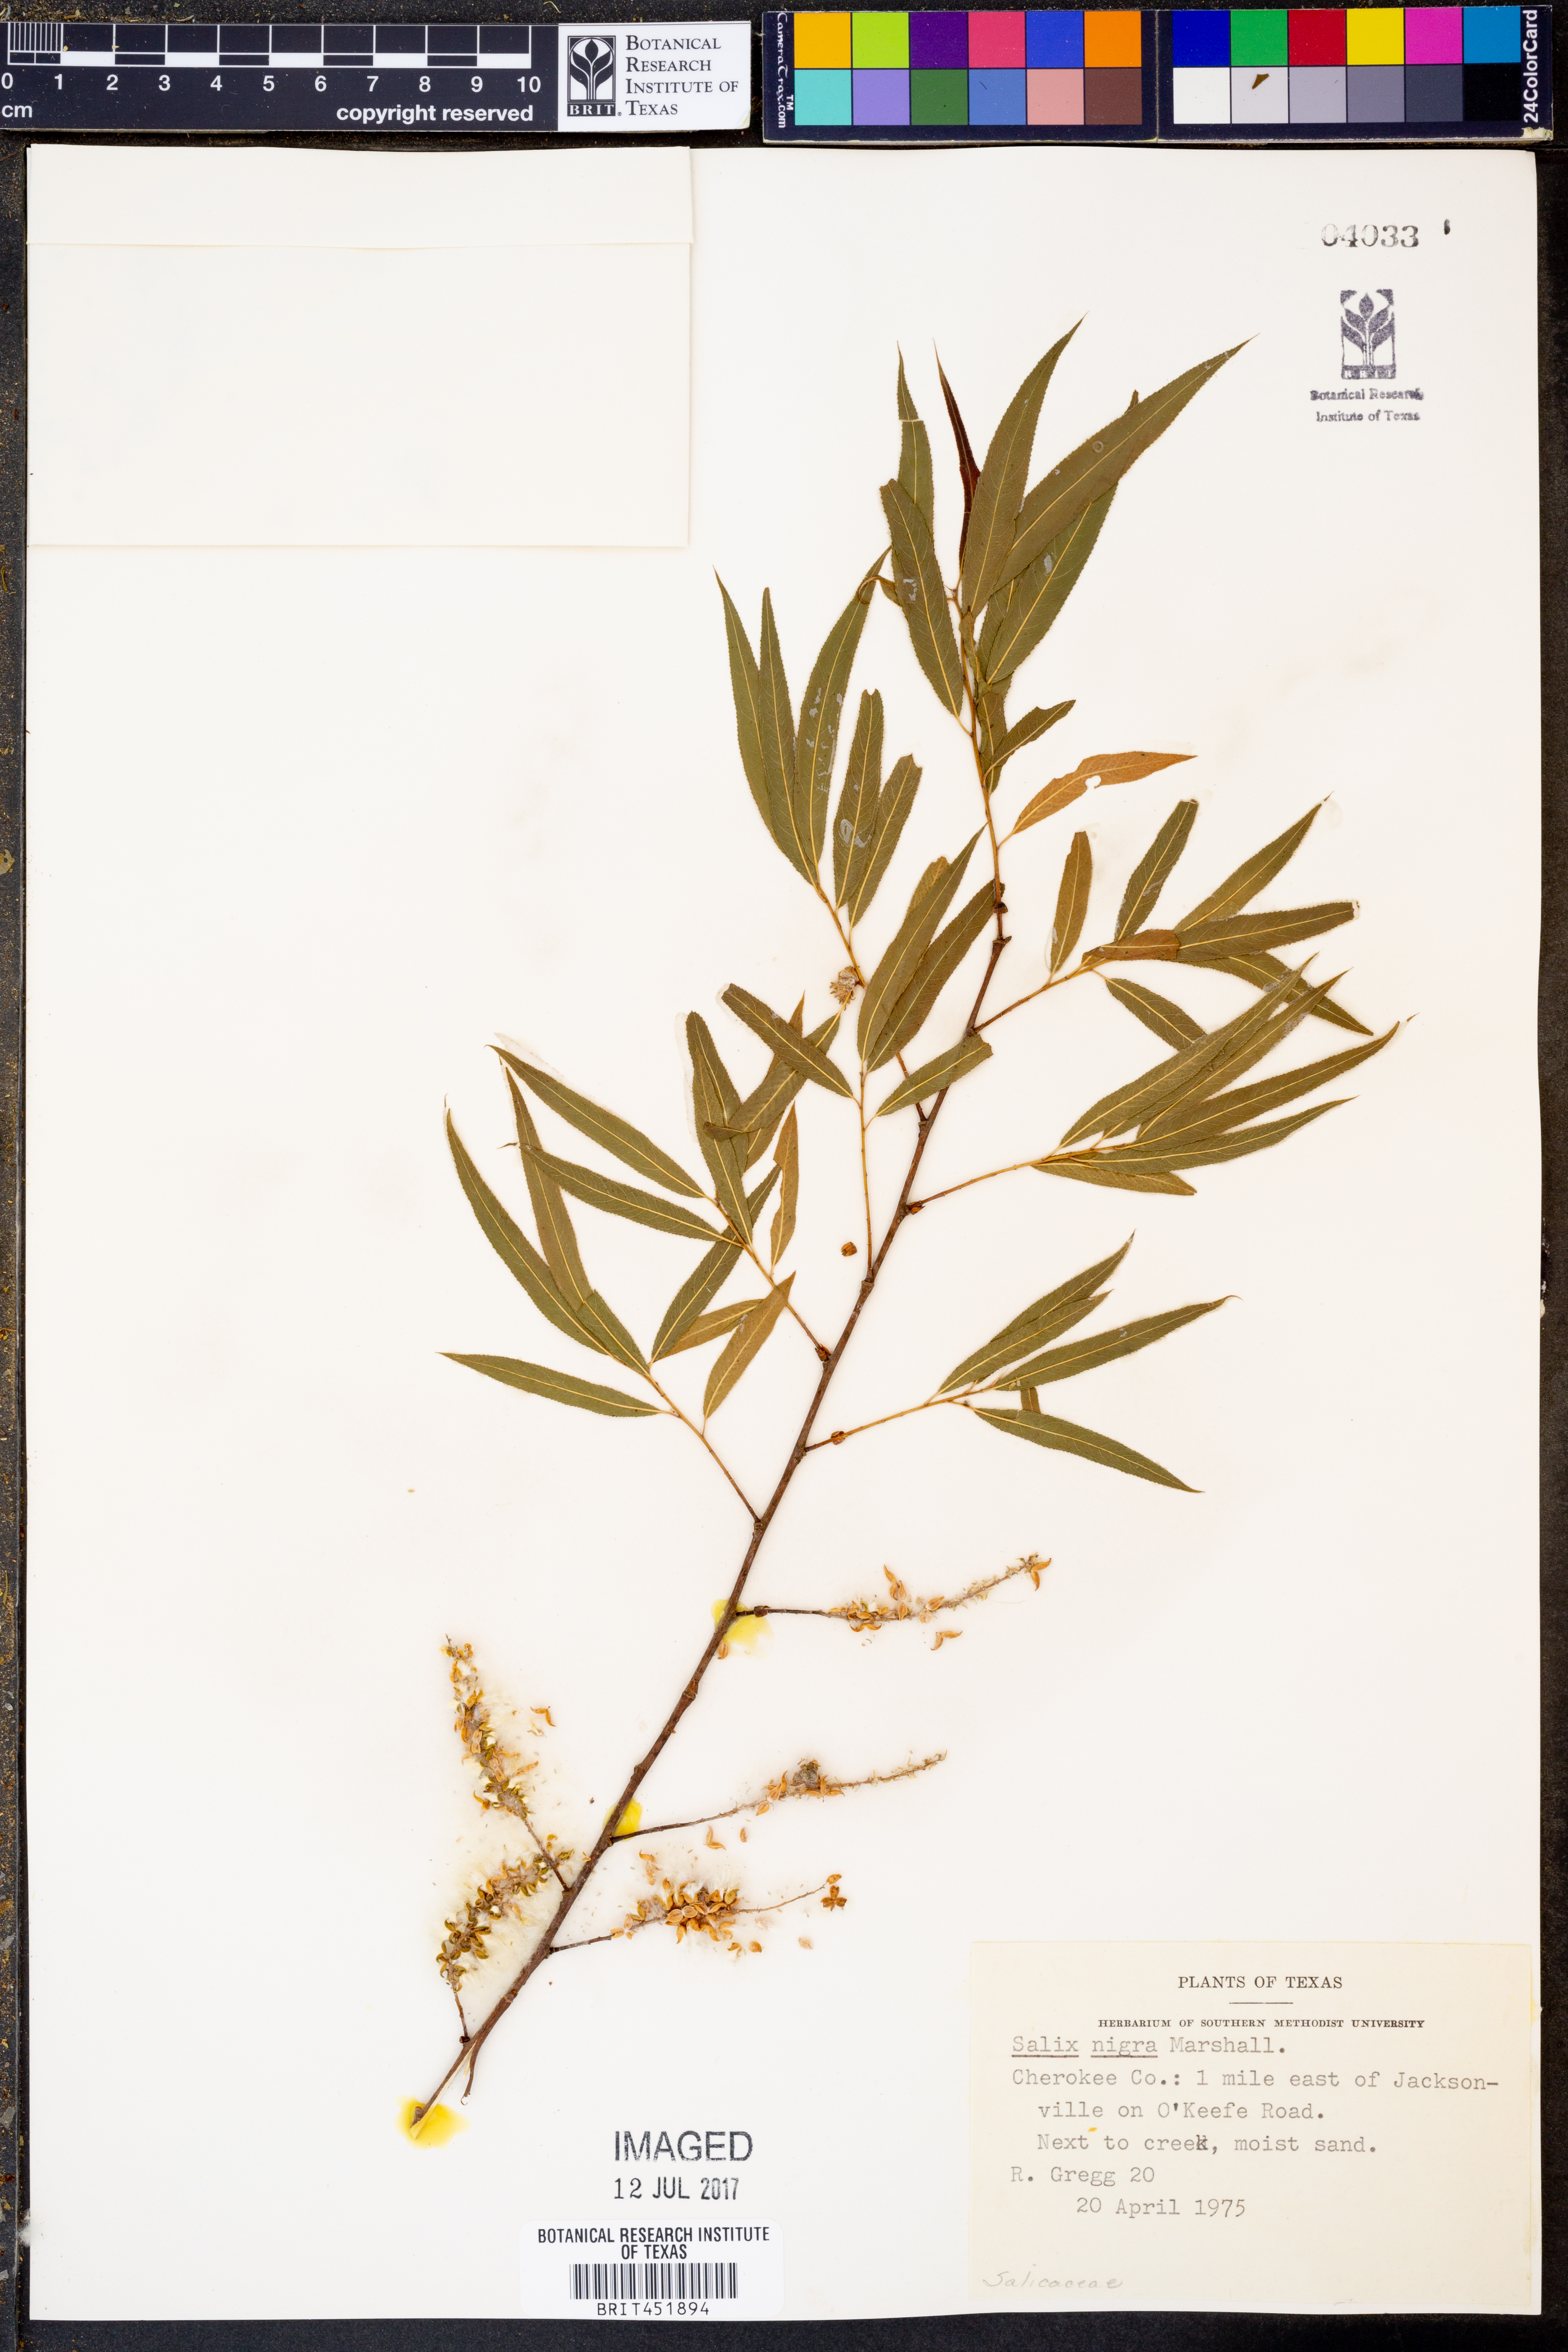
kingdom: Plantae
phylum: Tracheophyta
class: Magnoliopsida
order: Malpighiales
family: Salicaceae
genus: Salix
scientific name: Salix nigra
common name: Black willow
